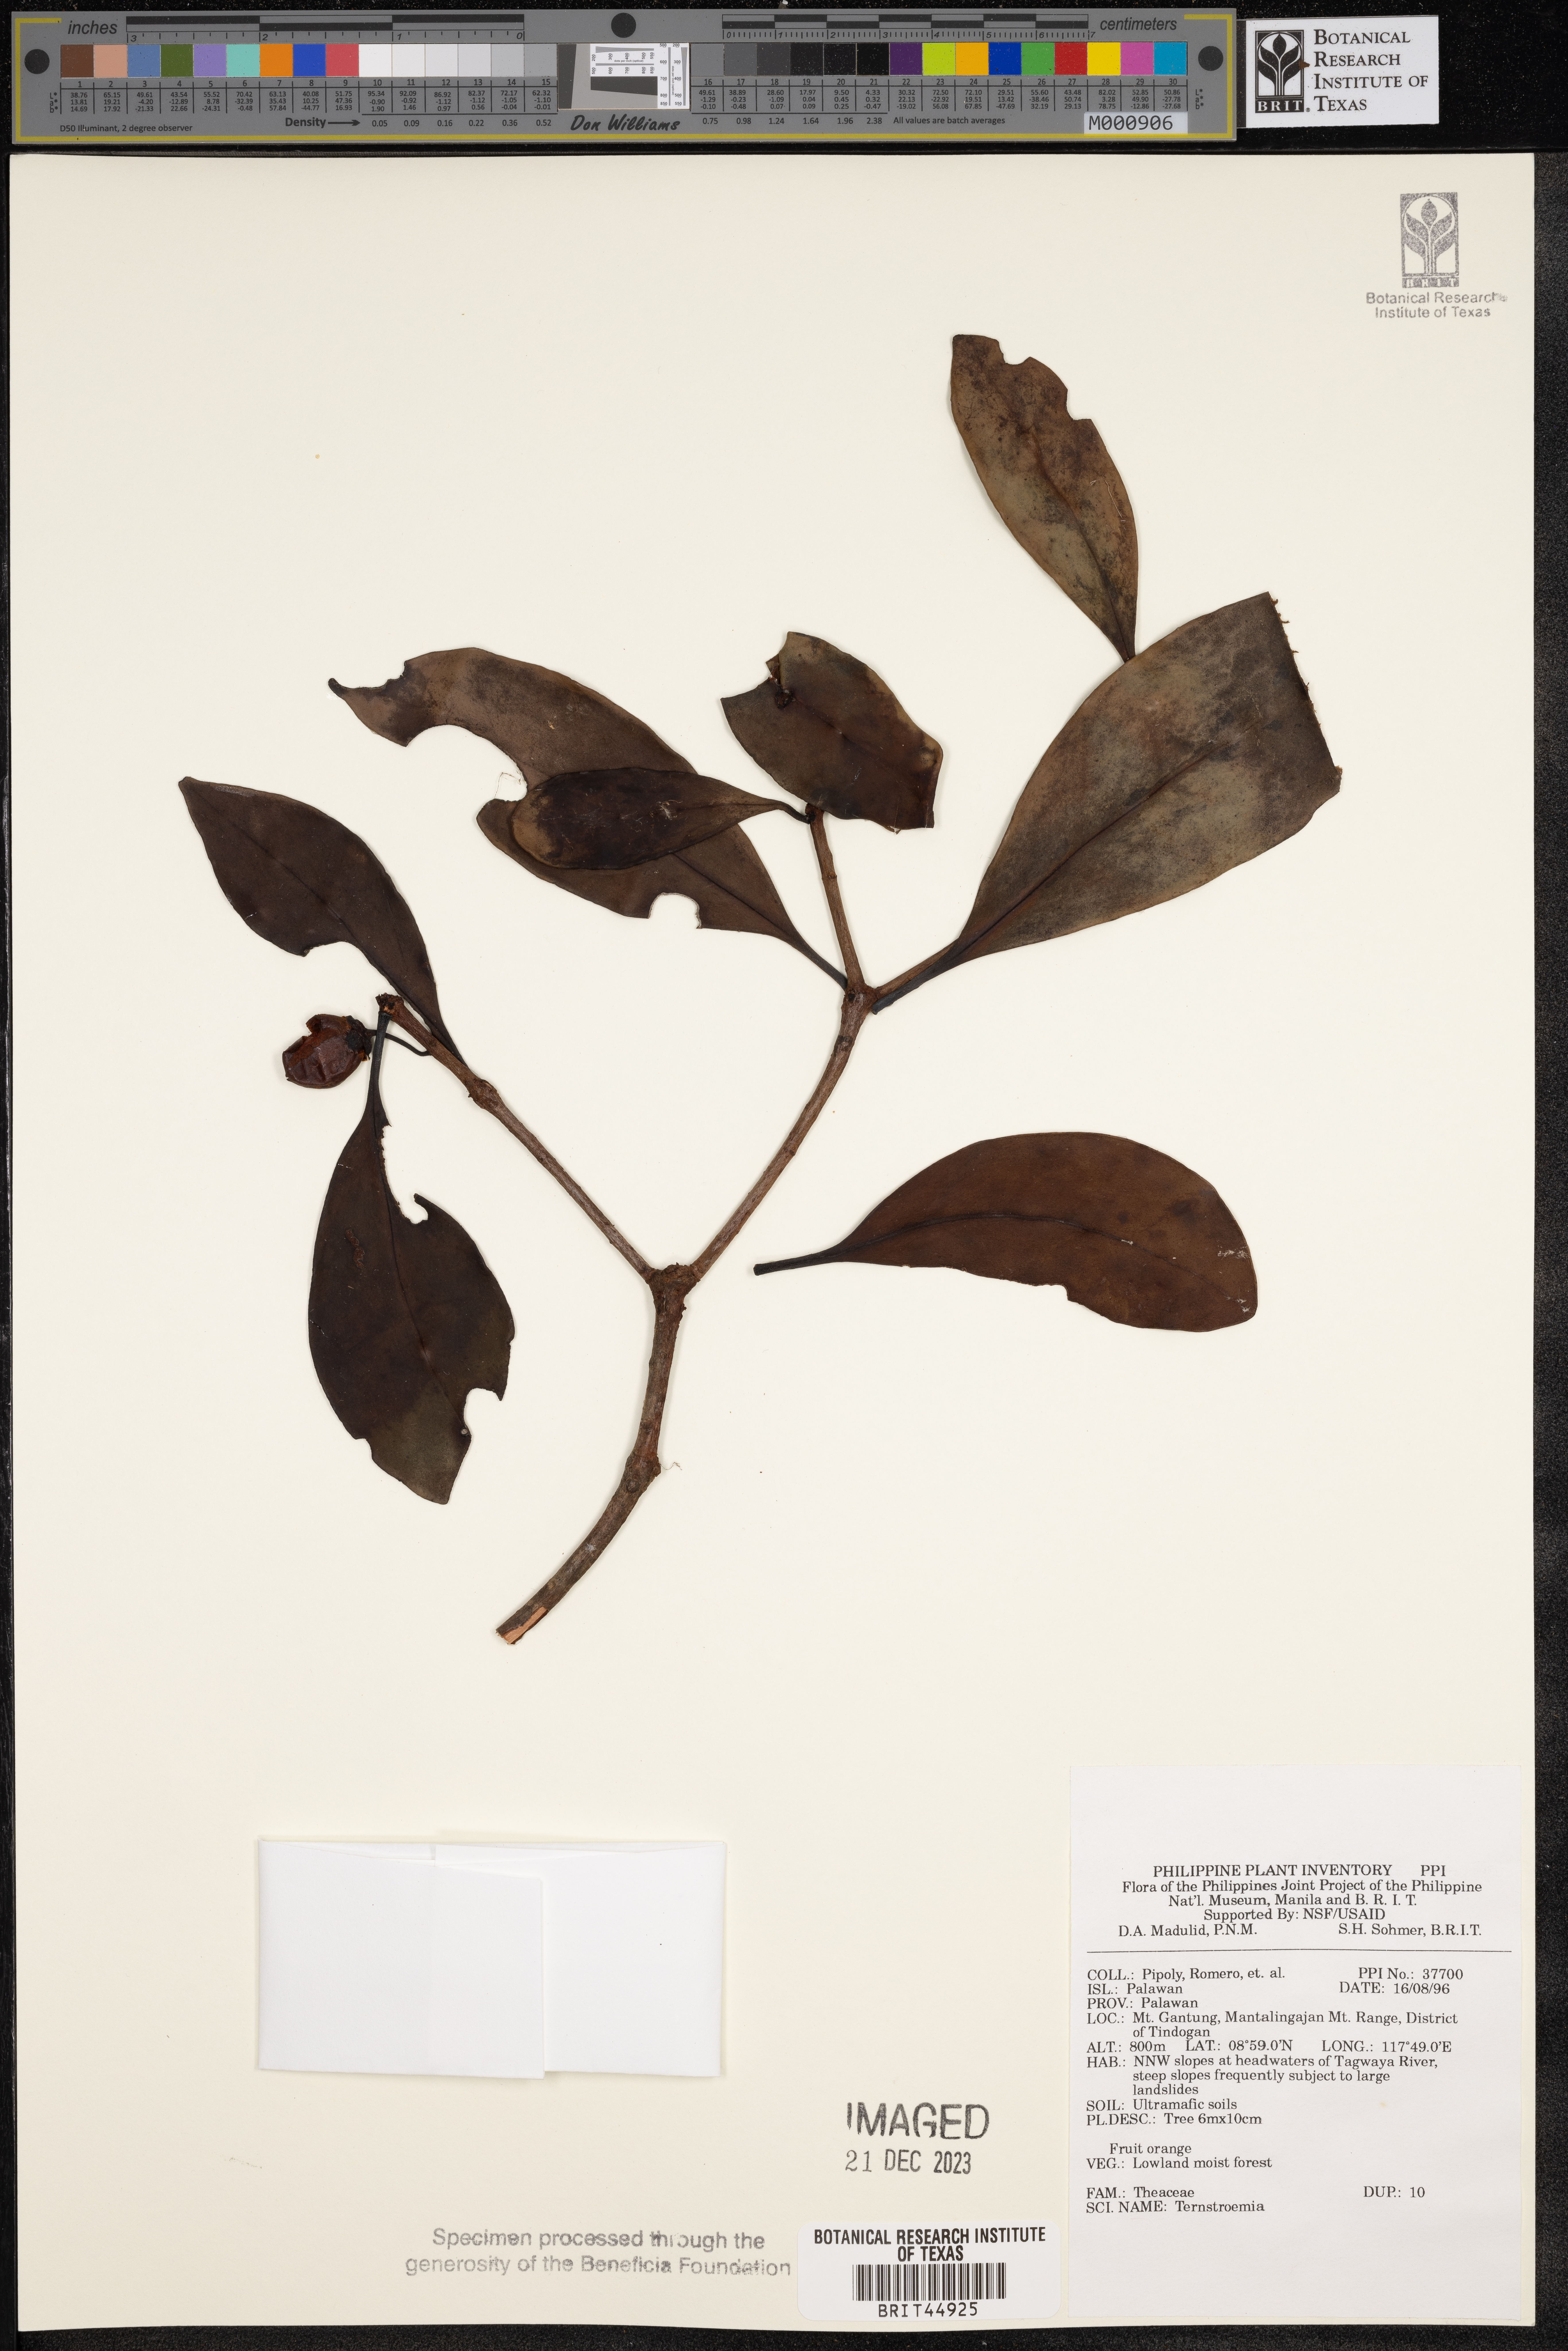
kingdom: Plantae
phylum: Tracheophyta
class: Magnoliopsida
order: Ericales
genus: Ternstroemia
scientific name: Ternstroemia
